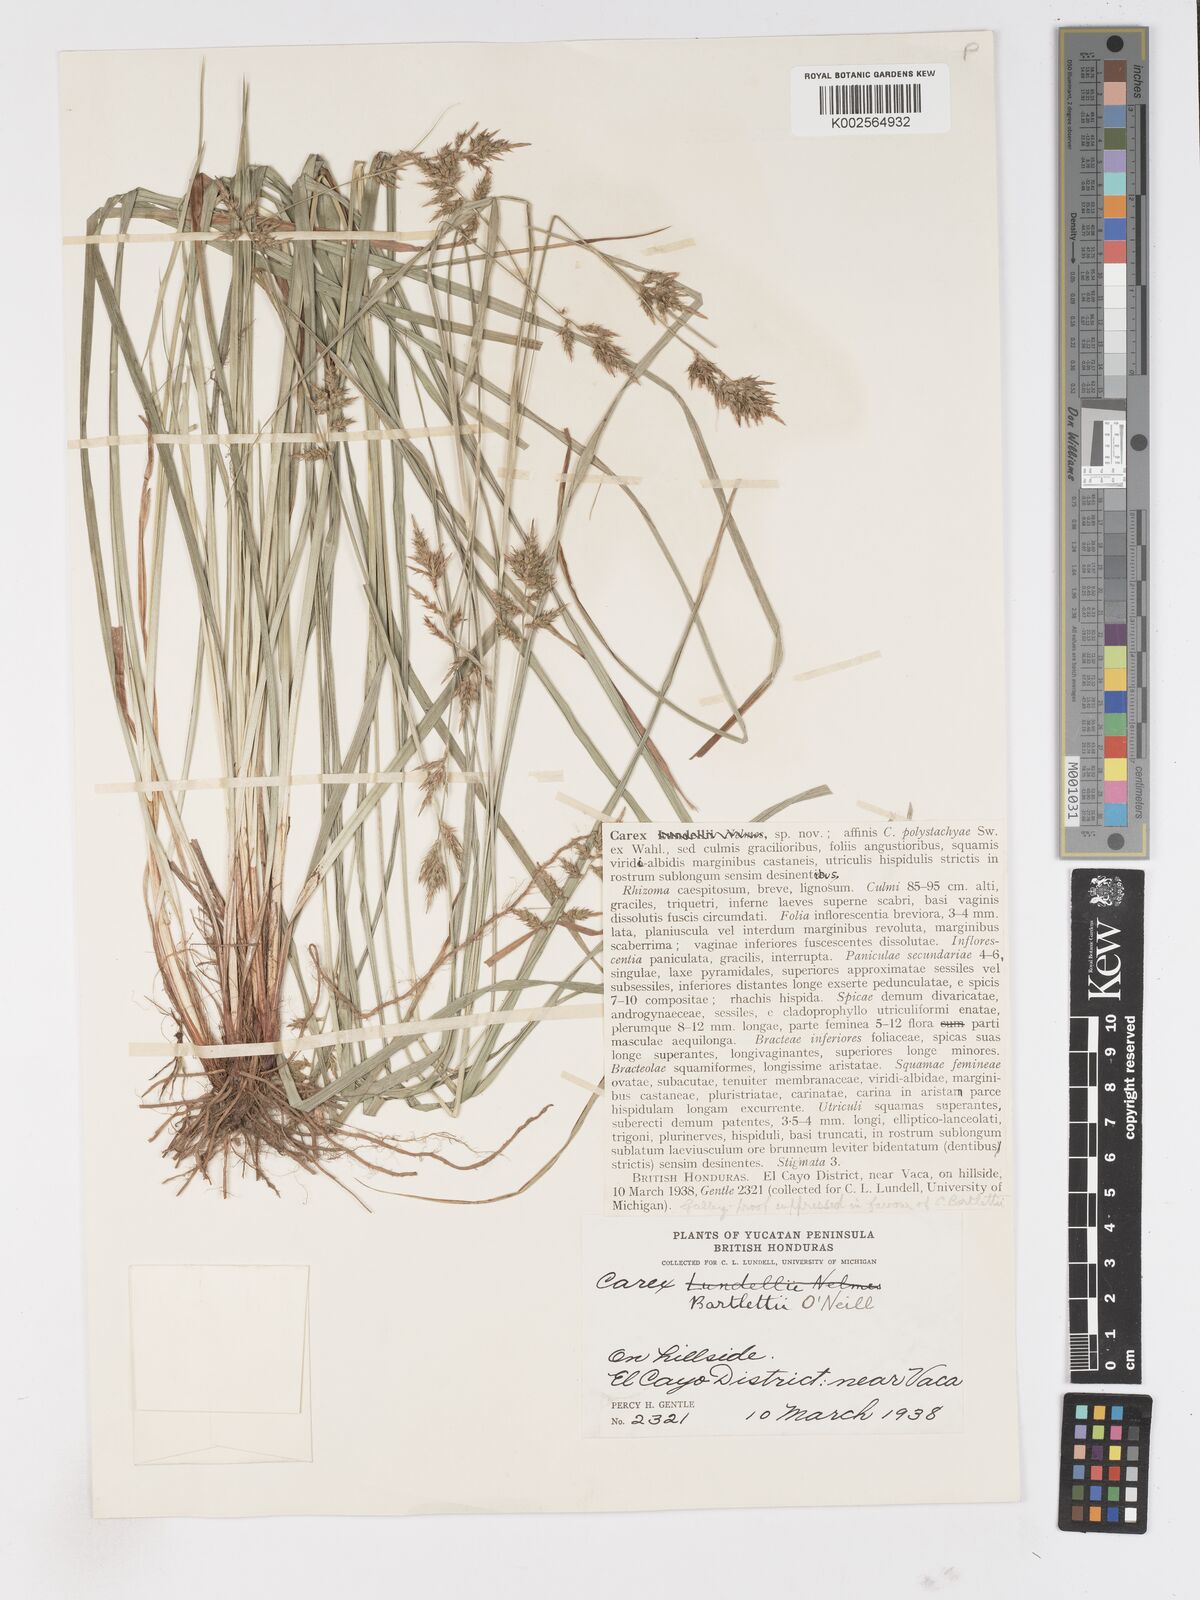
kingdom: Plantae
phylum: Tracheophyta
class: Liliopsida
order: Poales
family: Cyperaceae
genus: Carex
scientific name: Carex polystachya
